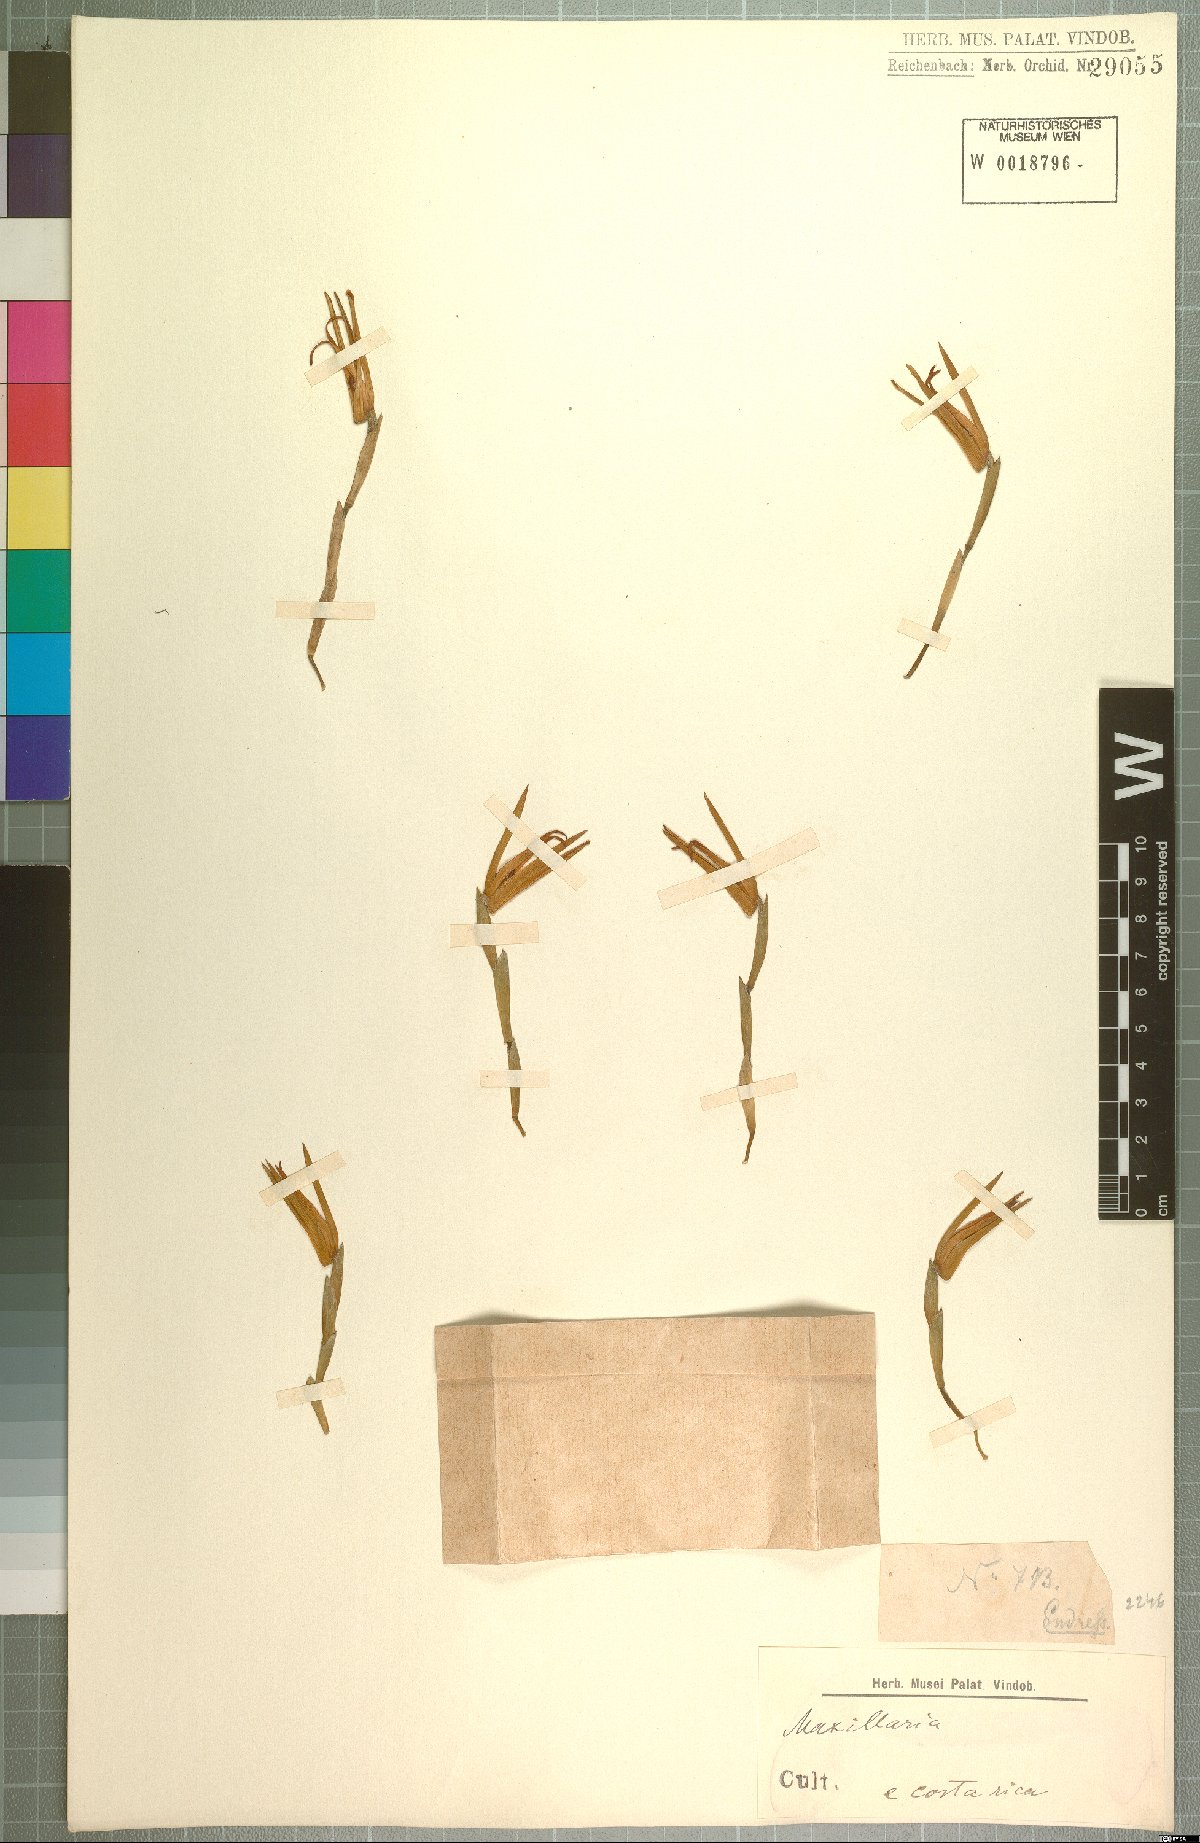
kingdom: Plantae
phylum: Tracheophyta
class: Liliopsida
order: Asparagales
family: Orchidaceae
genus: Maxillaria
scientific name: Maxillaria
